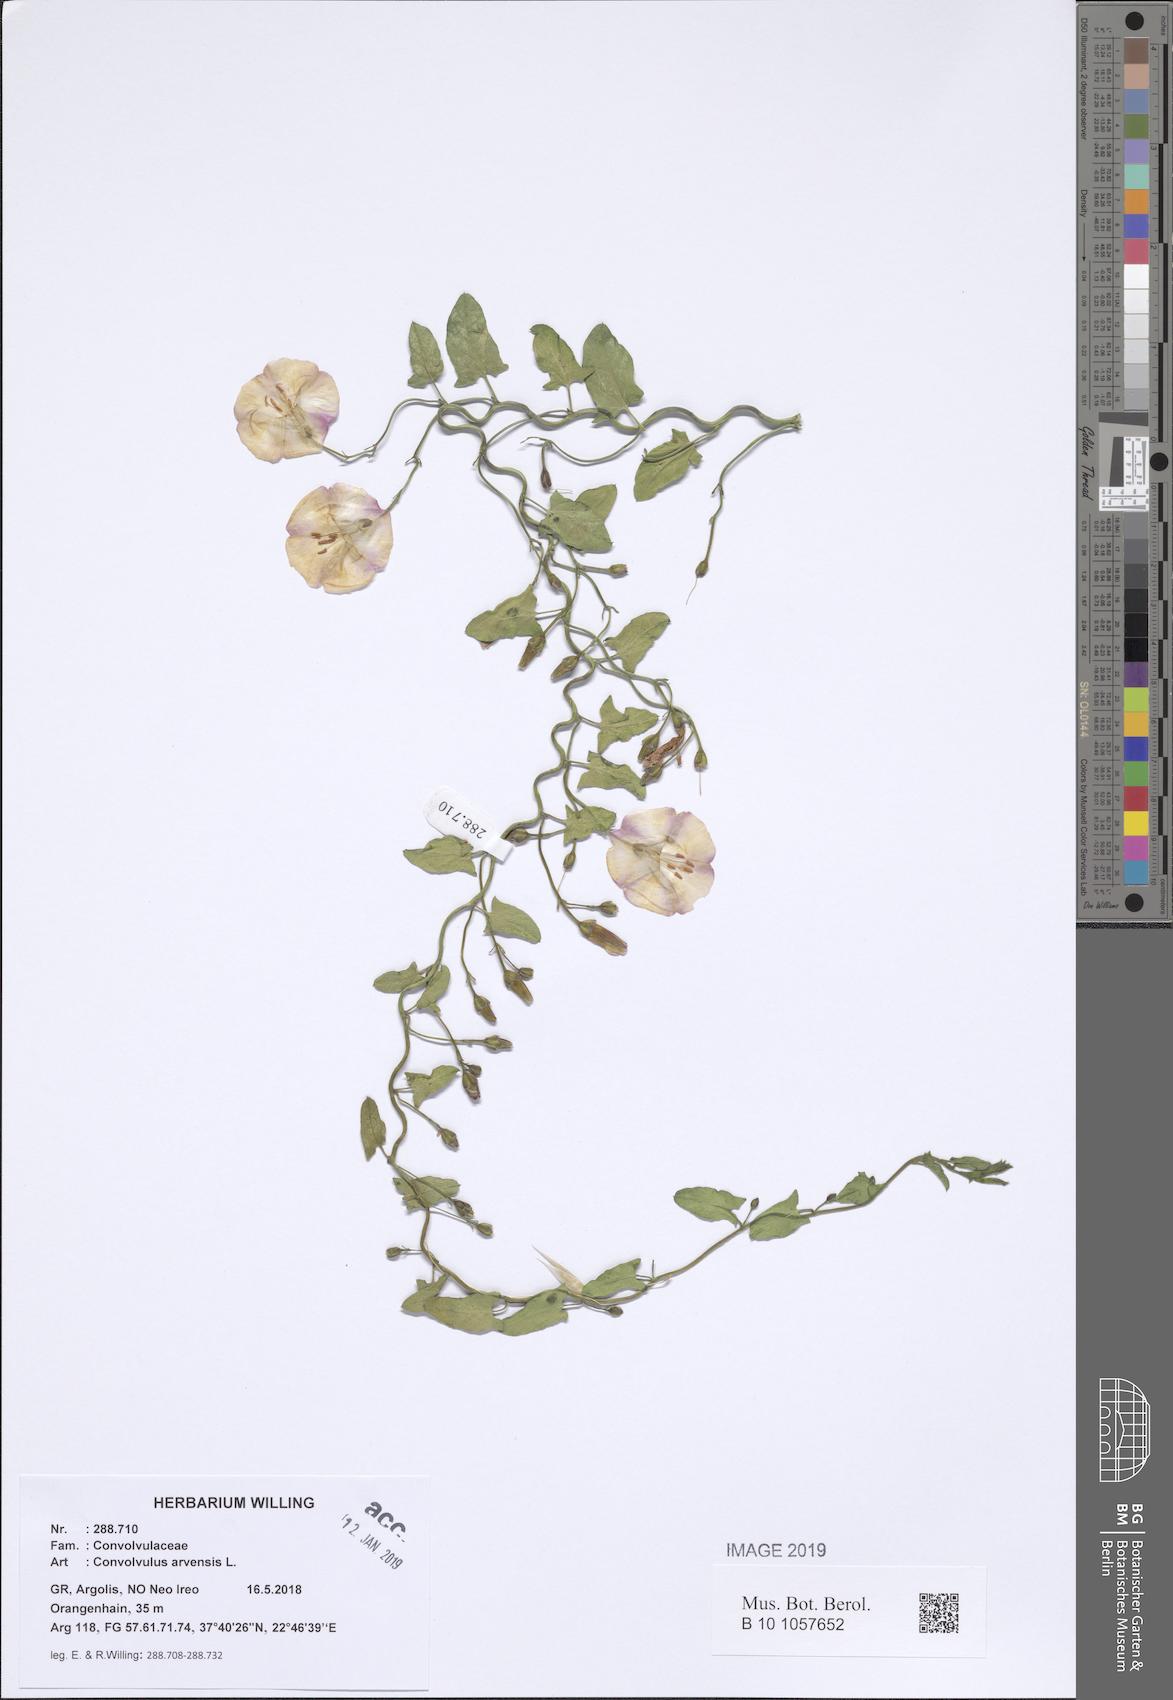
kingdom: Plantae
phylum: Tracheophyta
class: Magnoliopsida
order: Solanales
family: Convolvulaceae
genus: Convolvulus
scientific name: Convolvulus arvensis
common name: Field bindweed
